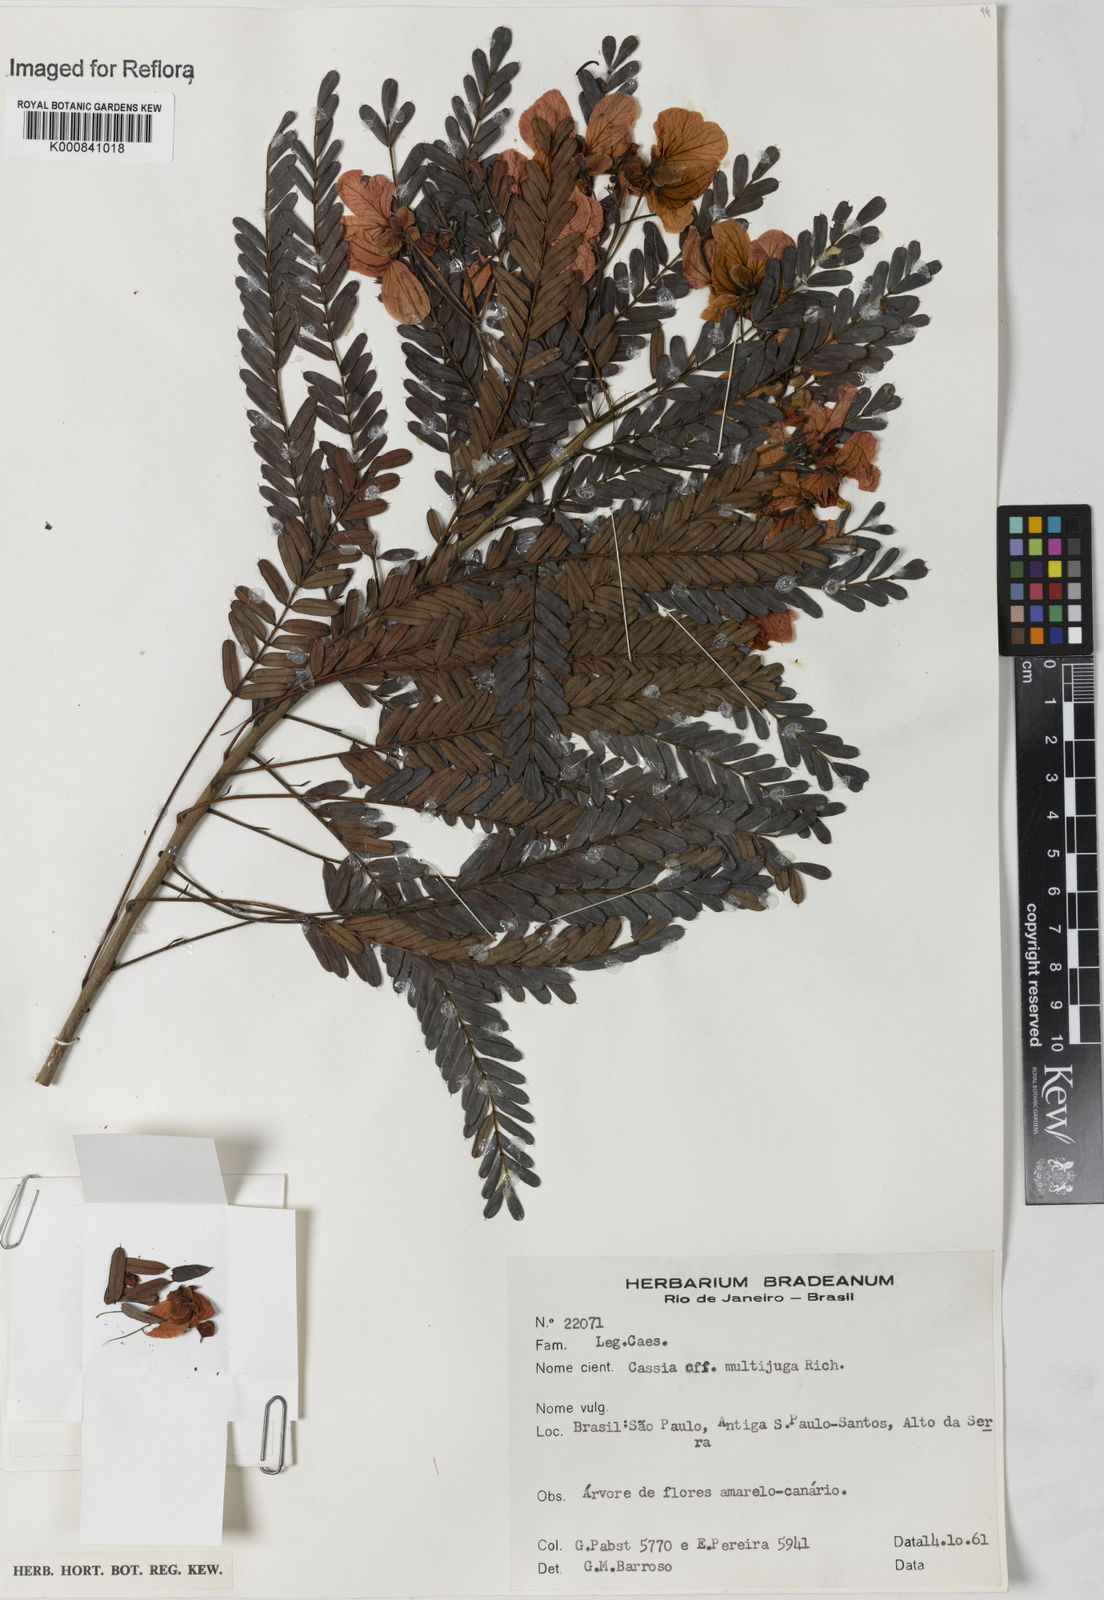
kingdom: Plantae
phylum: Tracheophyta
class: Magnoliopsida
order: Fabales
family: Fabaceae
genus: Senna
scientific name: Senna multijuga
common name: False sicklepod
